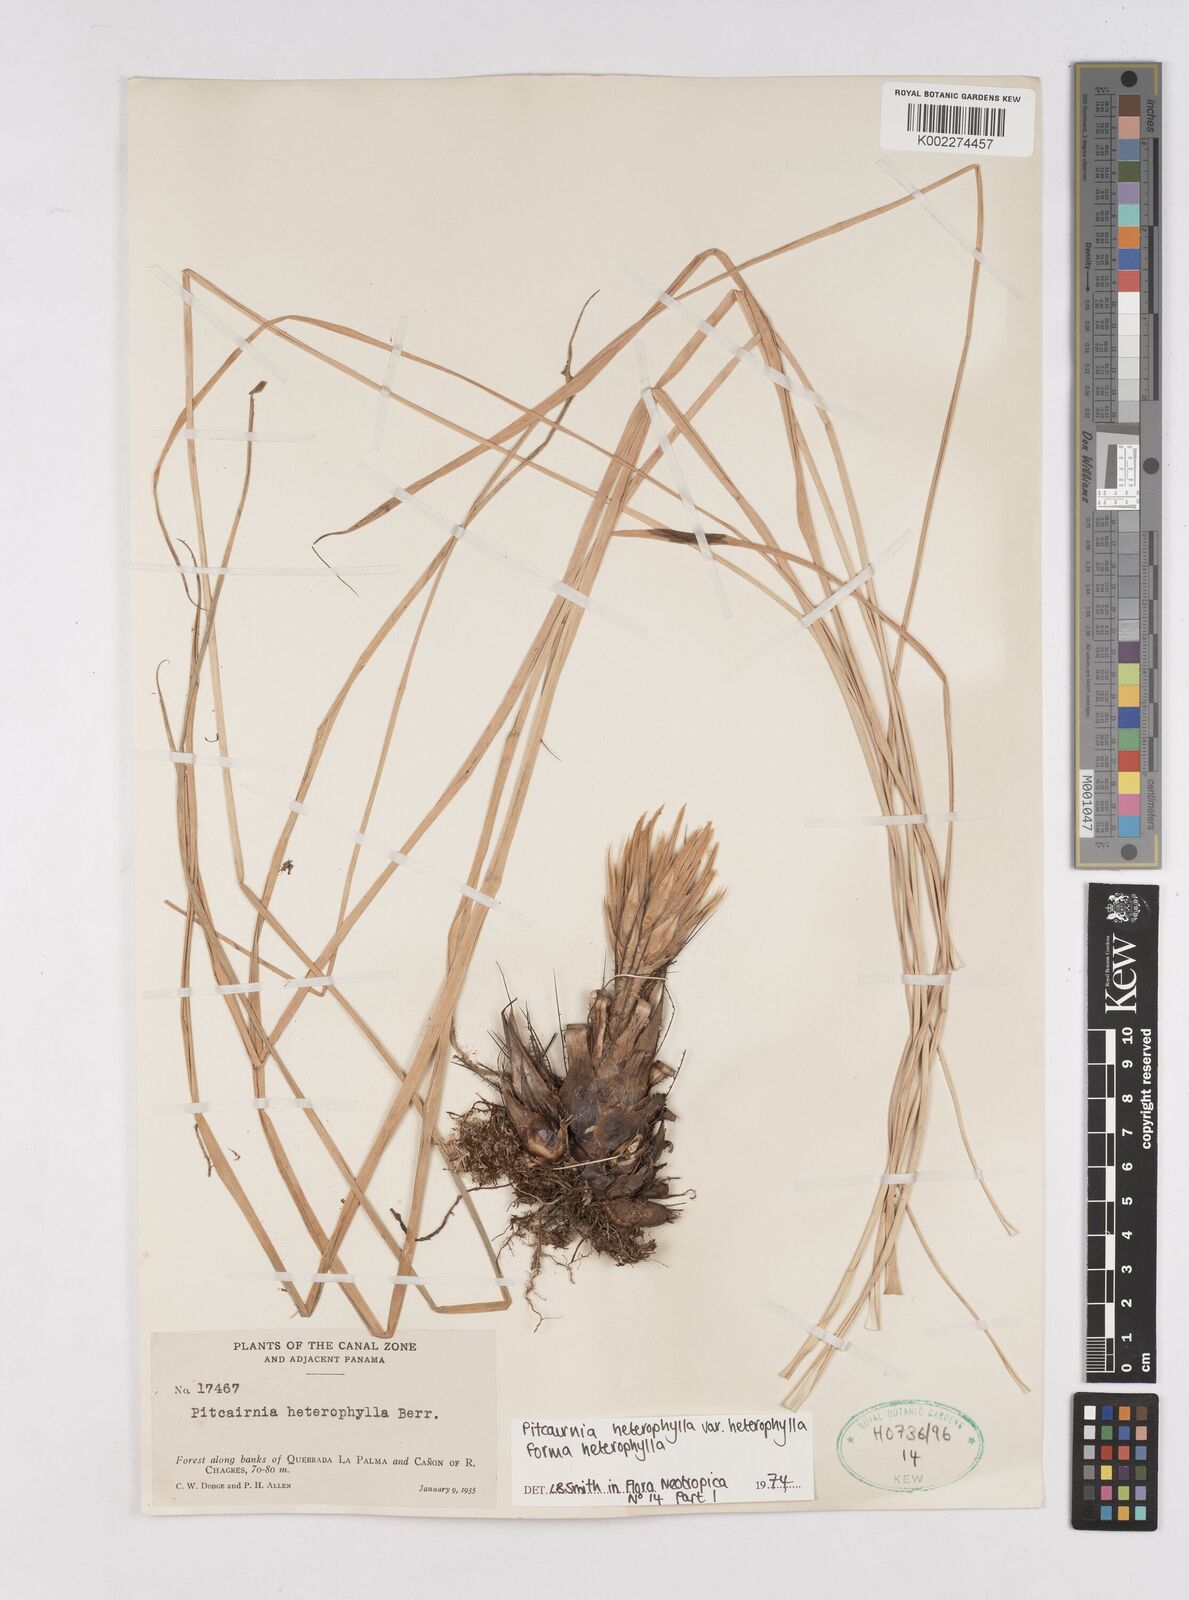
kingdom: Plantae
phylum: Tracheophyta
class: Liliopsida
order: Poales
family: Bromeliaceae
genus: Pitcairnia
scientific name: Pitcairnia heterophylla
